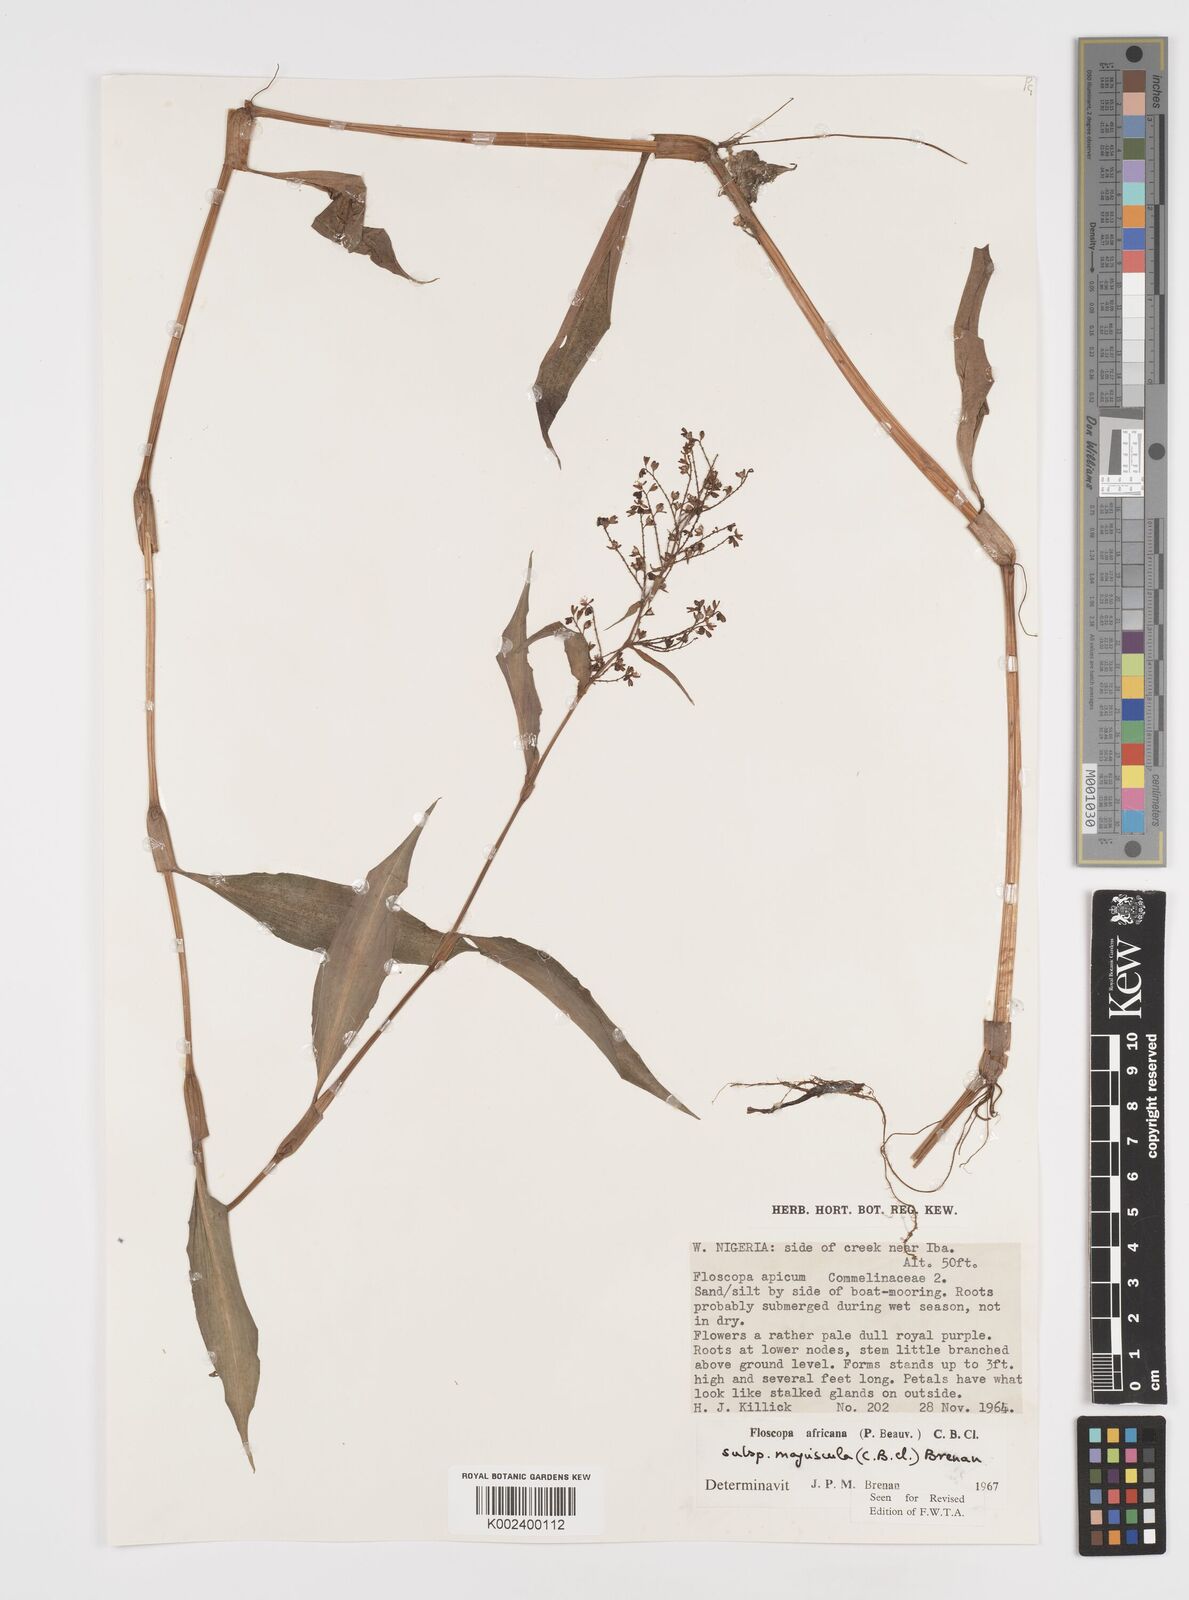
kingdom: Plantae
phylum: Tracheophyta
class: Liliopsida
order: Commelinales
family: Commelinaceae
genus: Floscopa
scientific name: Floscopa africana
